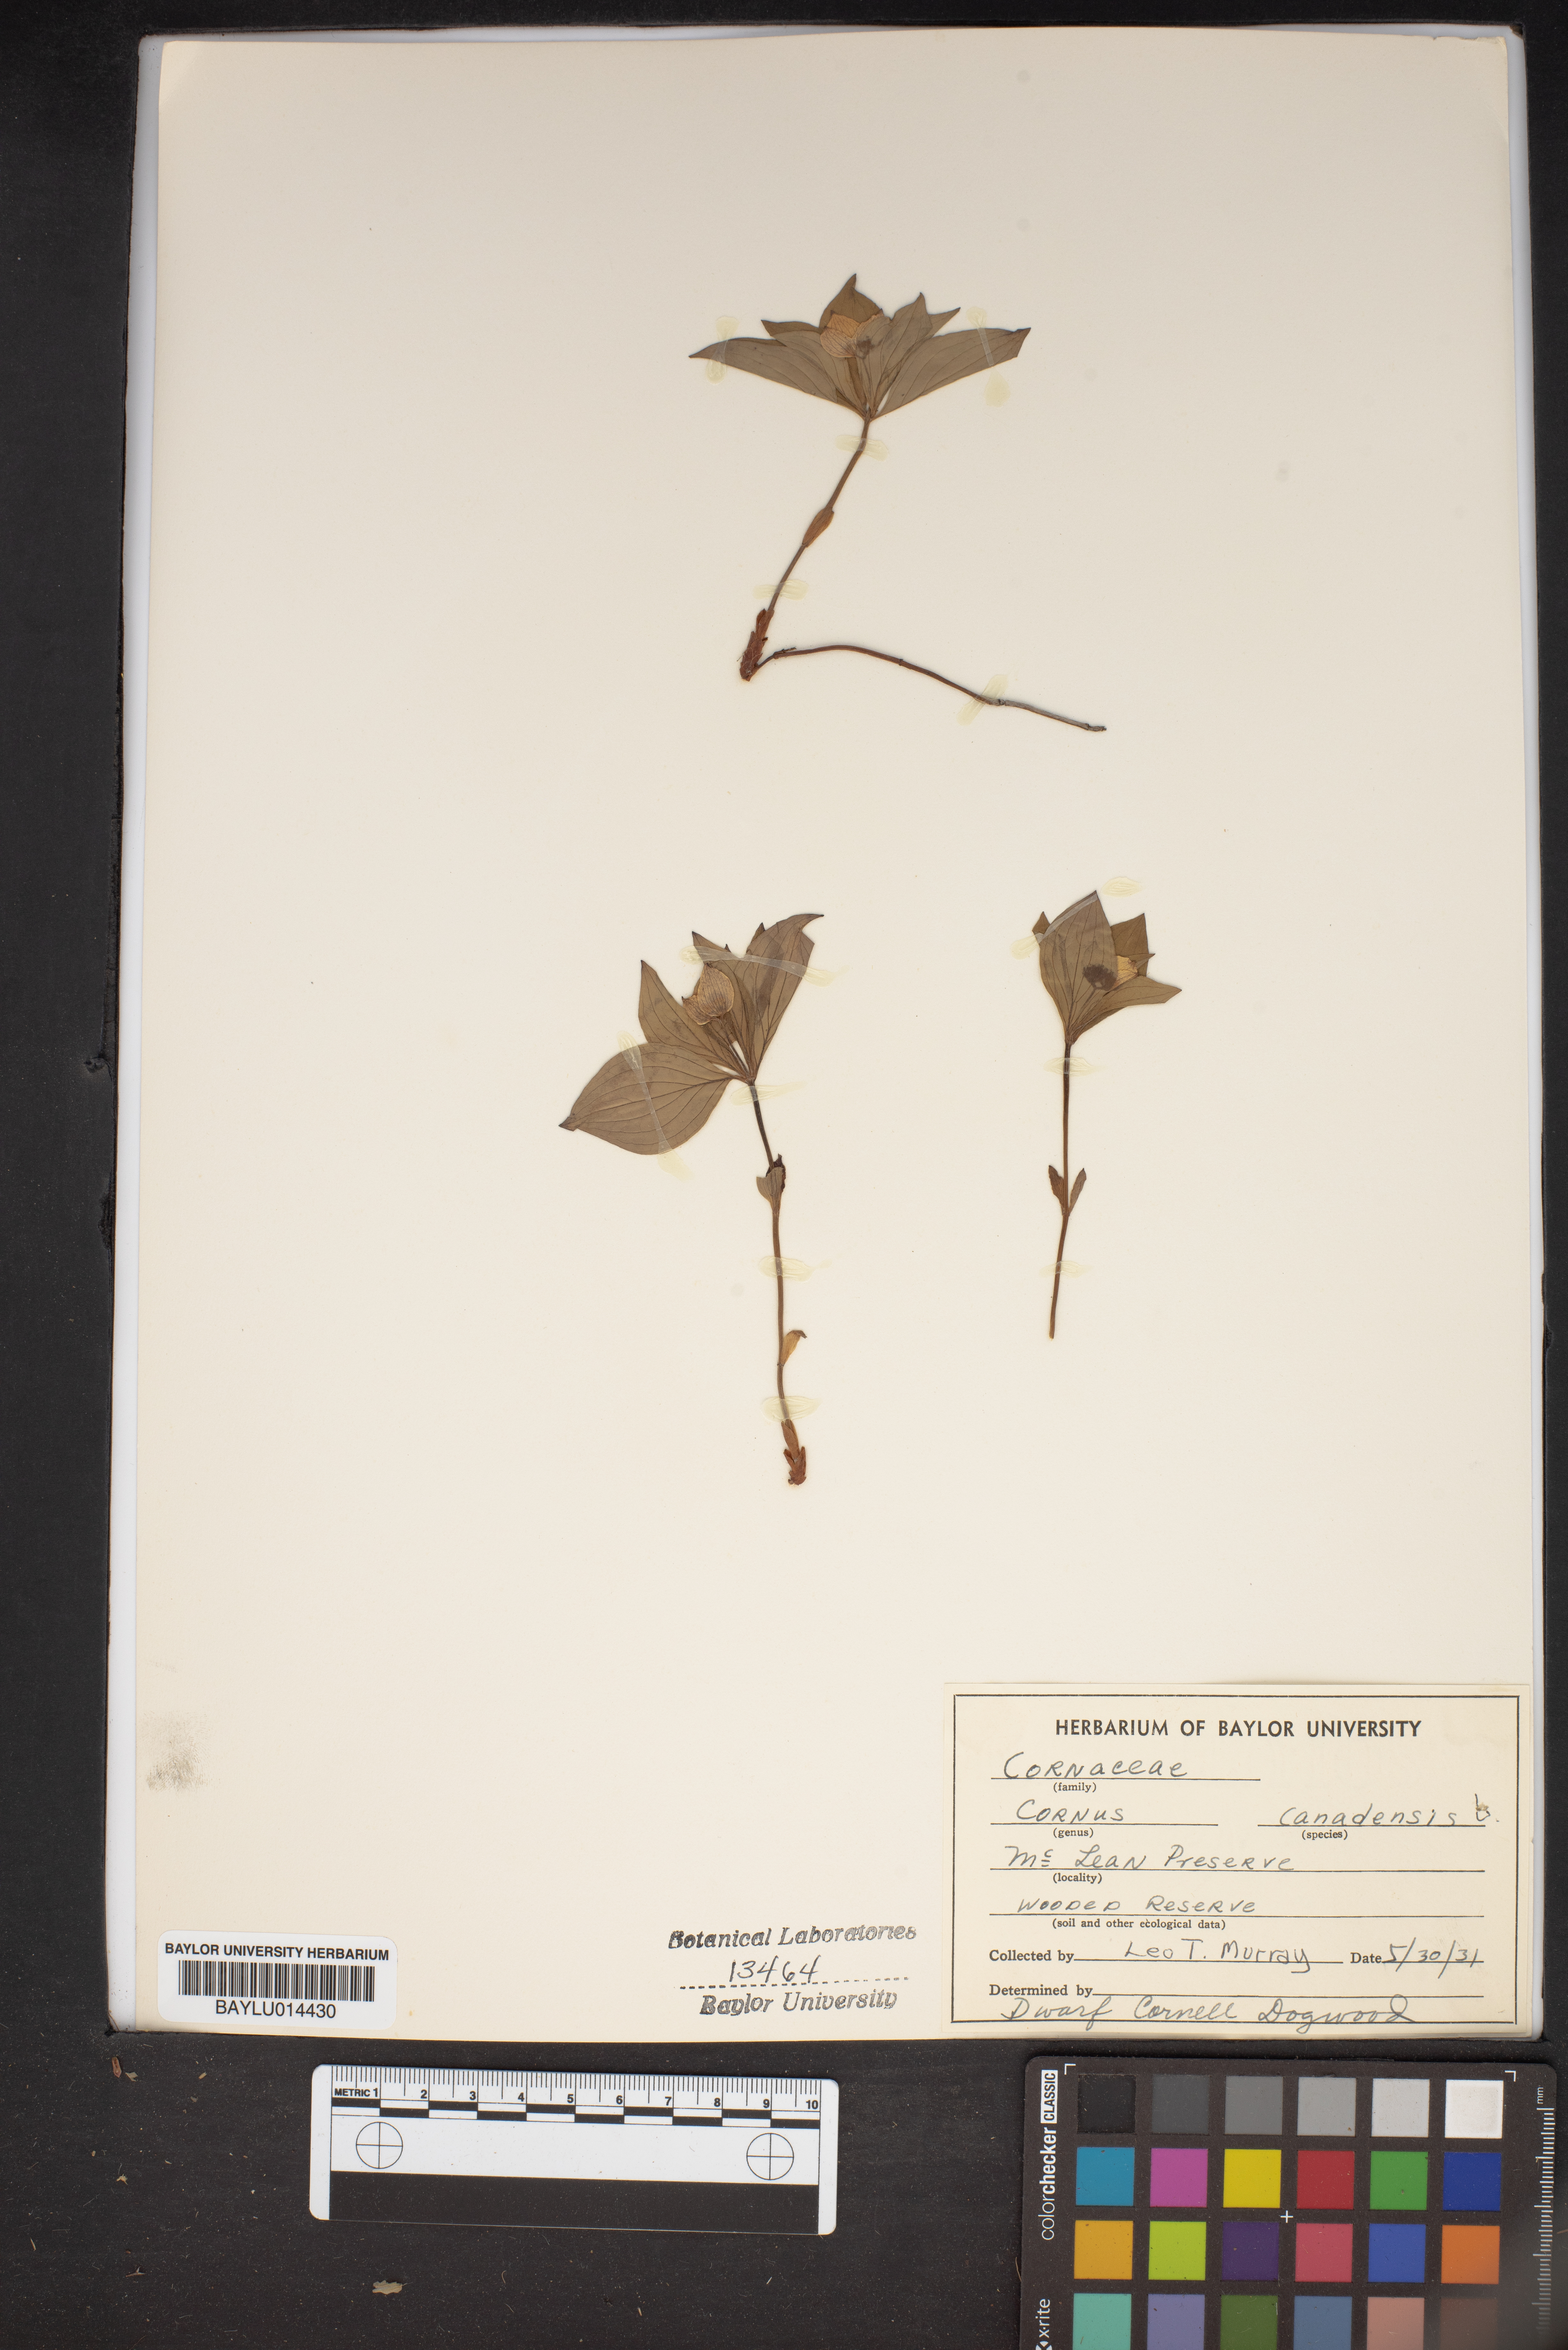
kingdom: Plantae
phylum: Tracheophyta
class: Magnoliopsida
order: Cornales
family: Cornaceae
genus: Cornus
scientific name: Cornus canadensis
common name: Creeping dogwood
